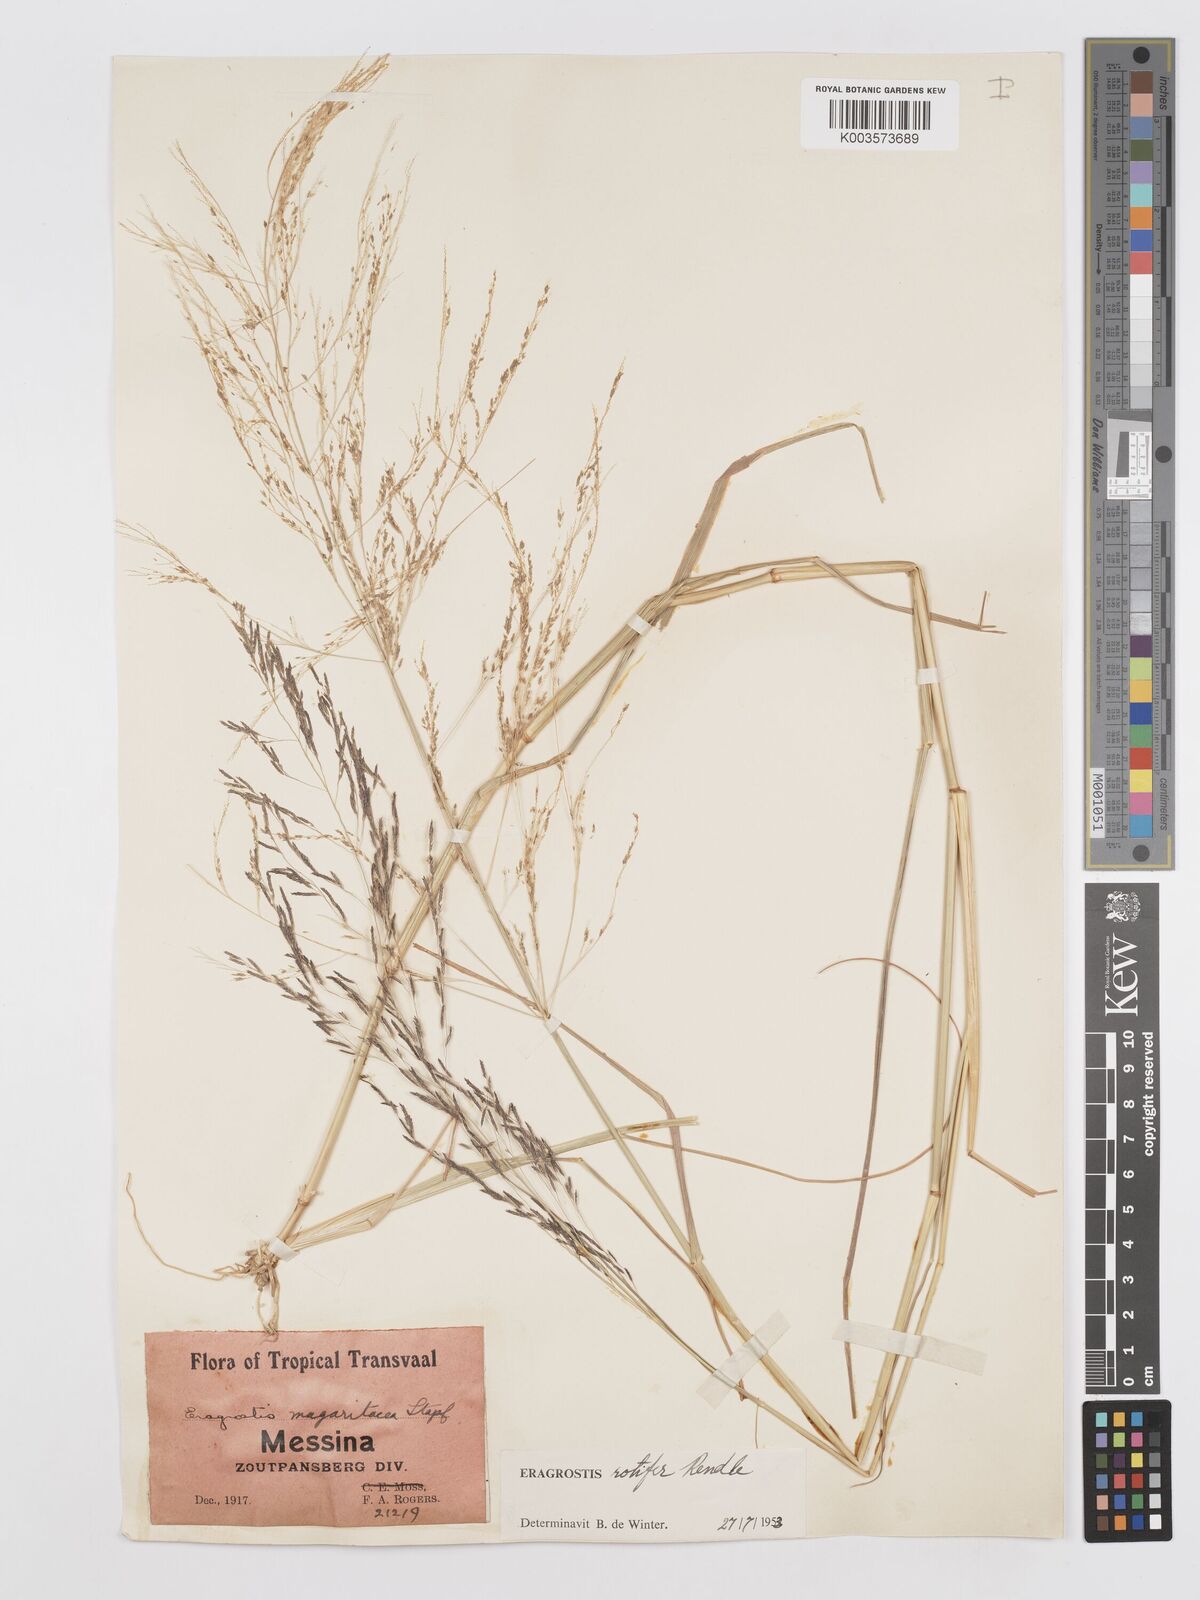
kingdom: Plantae
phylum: Tracheophyta
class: Liliopsida
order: Poales
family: Poaceae
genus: Eragrostis
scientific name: Eragrostis rotifer
